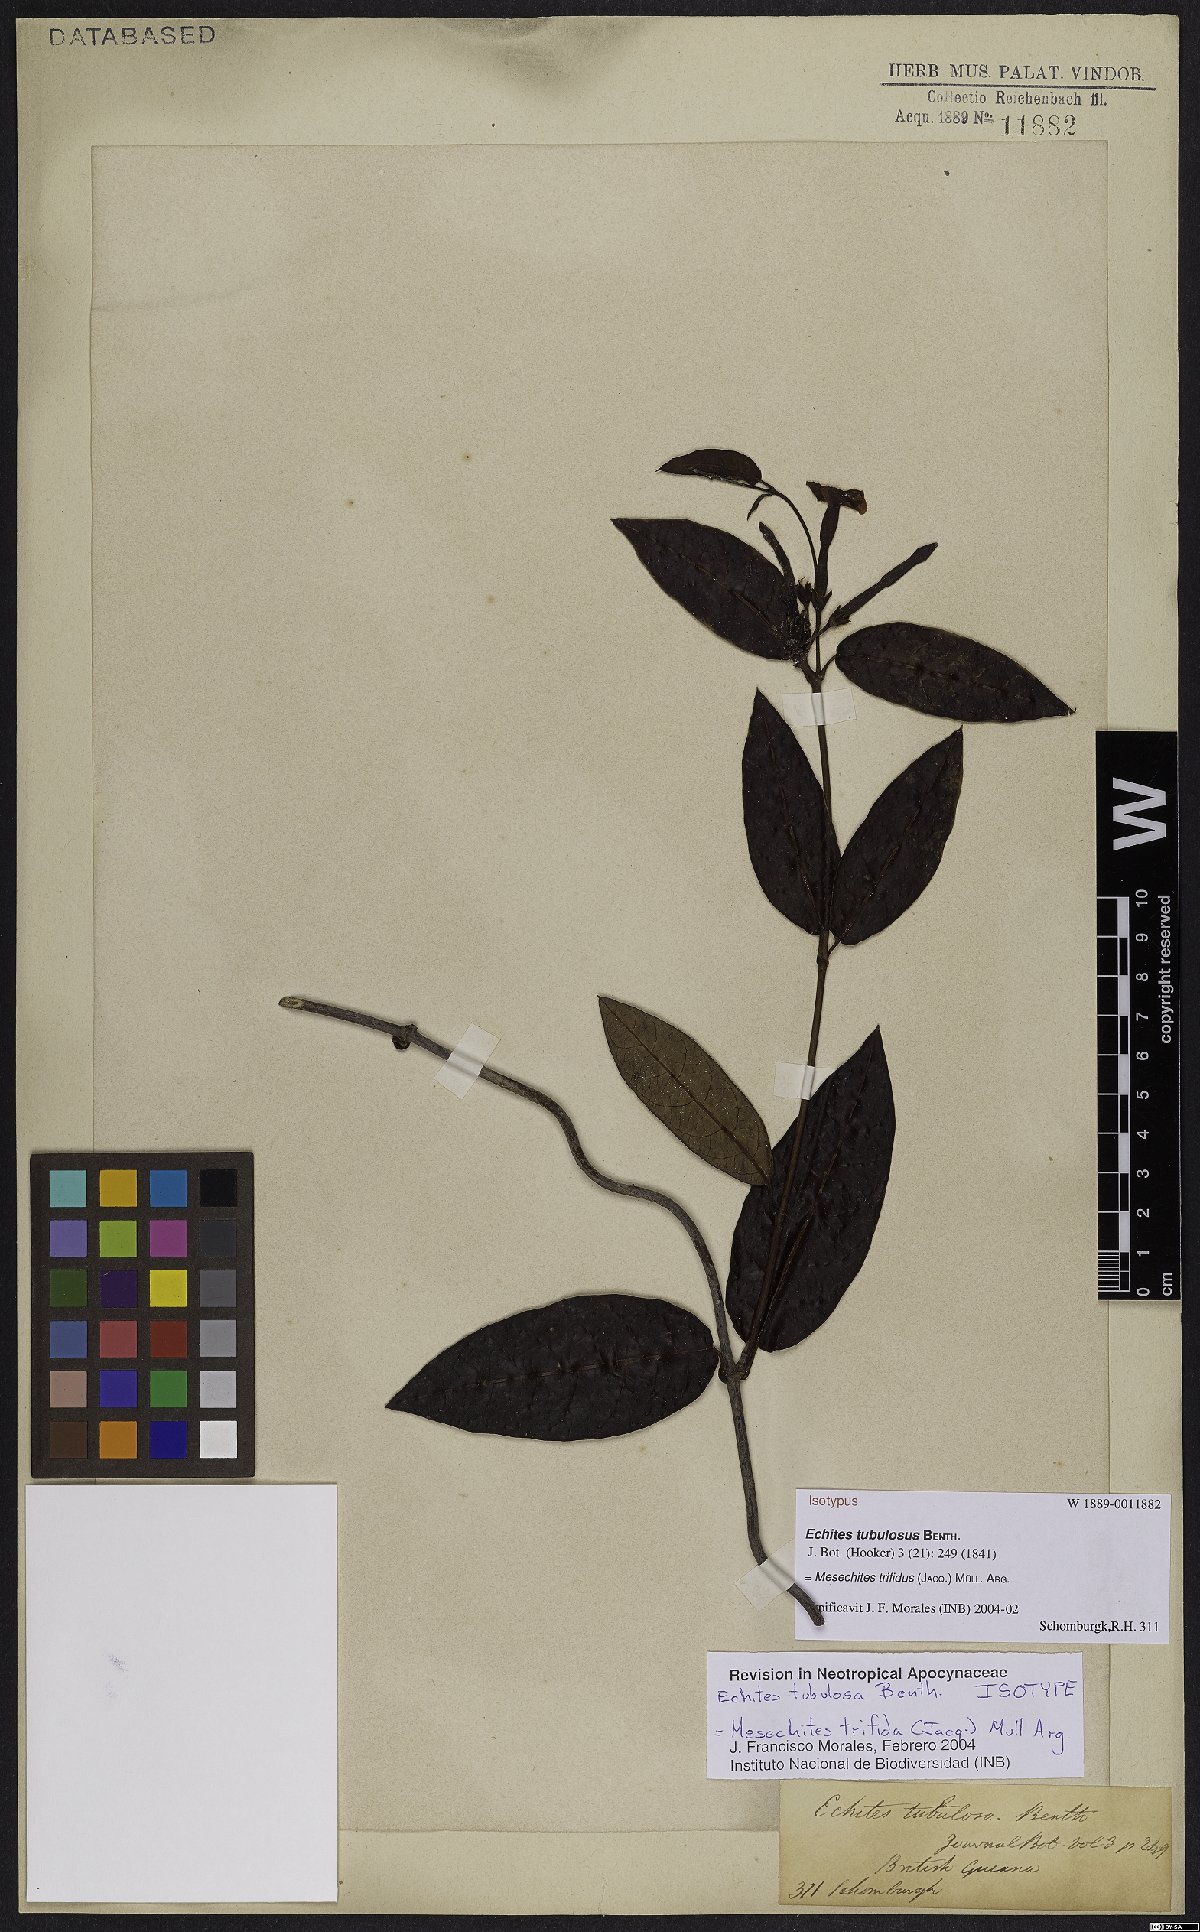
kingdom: Plantae
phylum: Tracheophyta
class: Magnoliopsida
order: Gentianales
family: Apocynaceae
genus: Mesechites
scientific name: Mesechites trifidus
